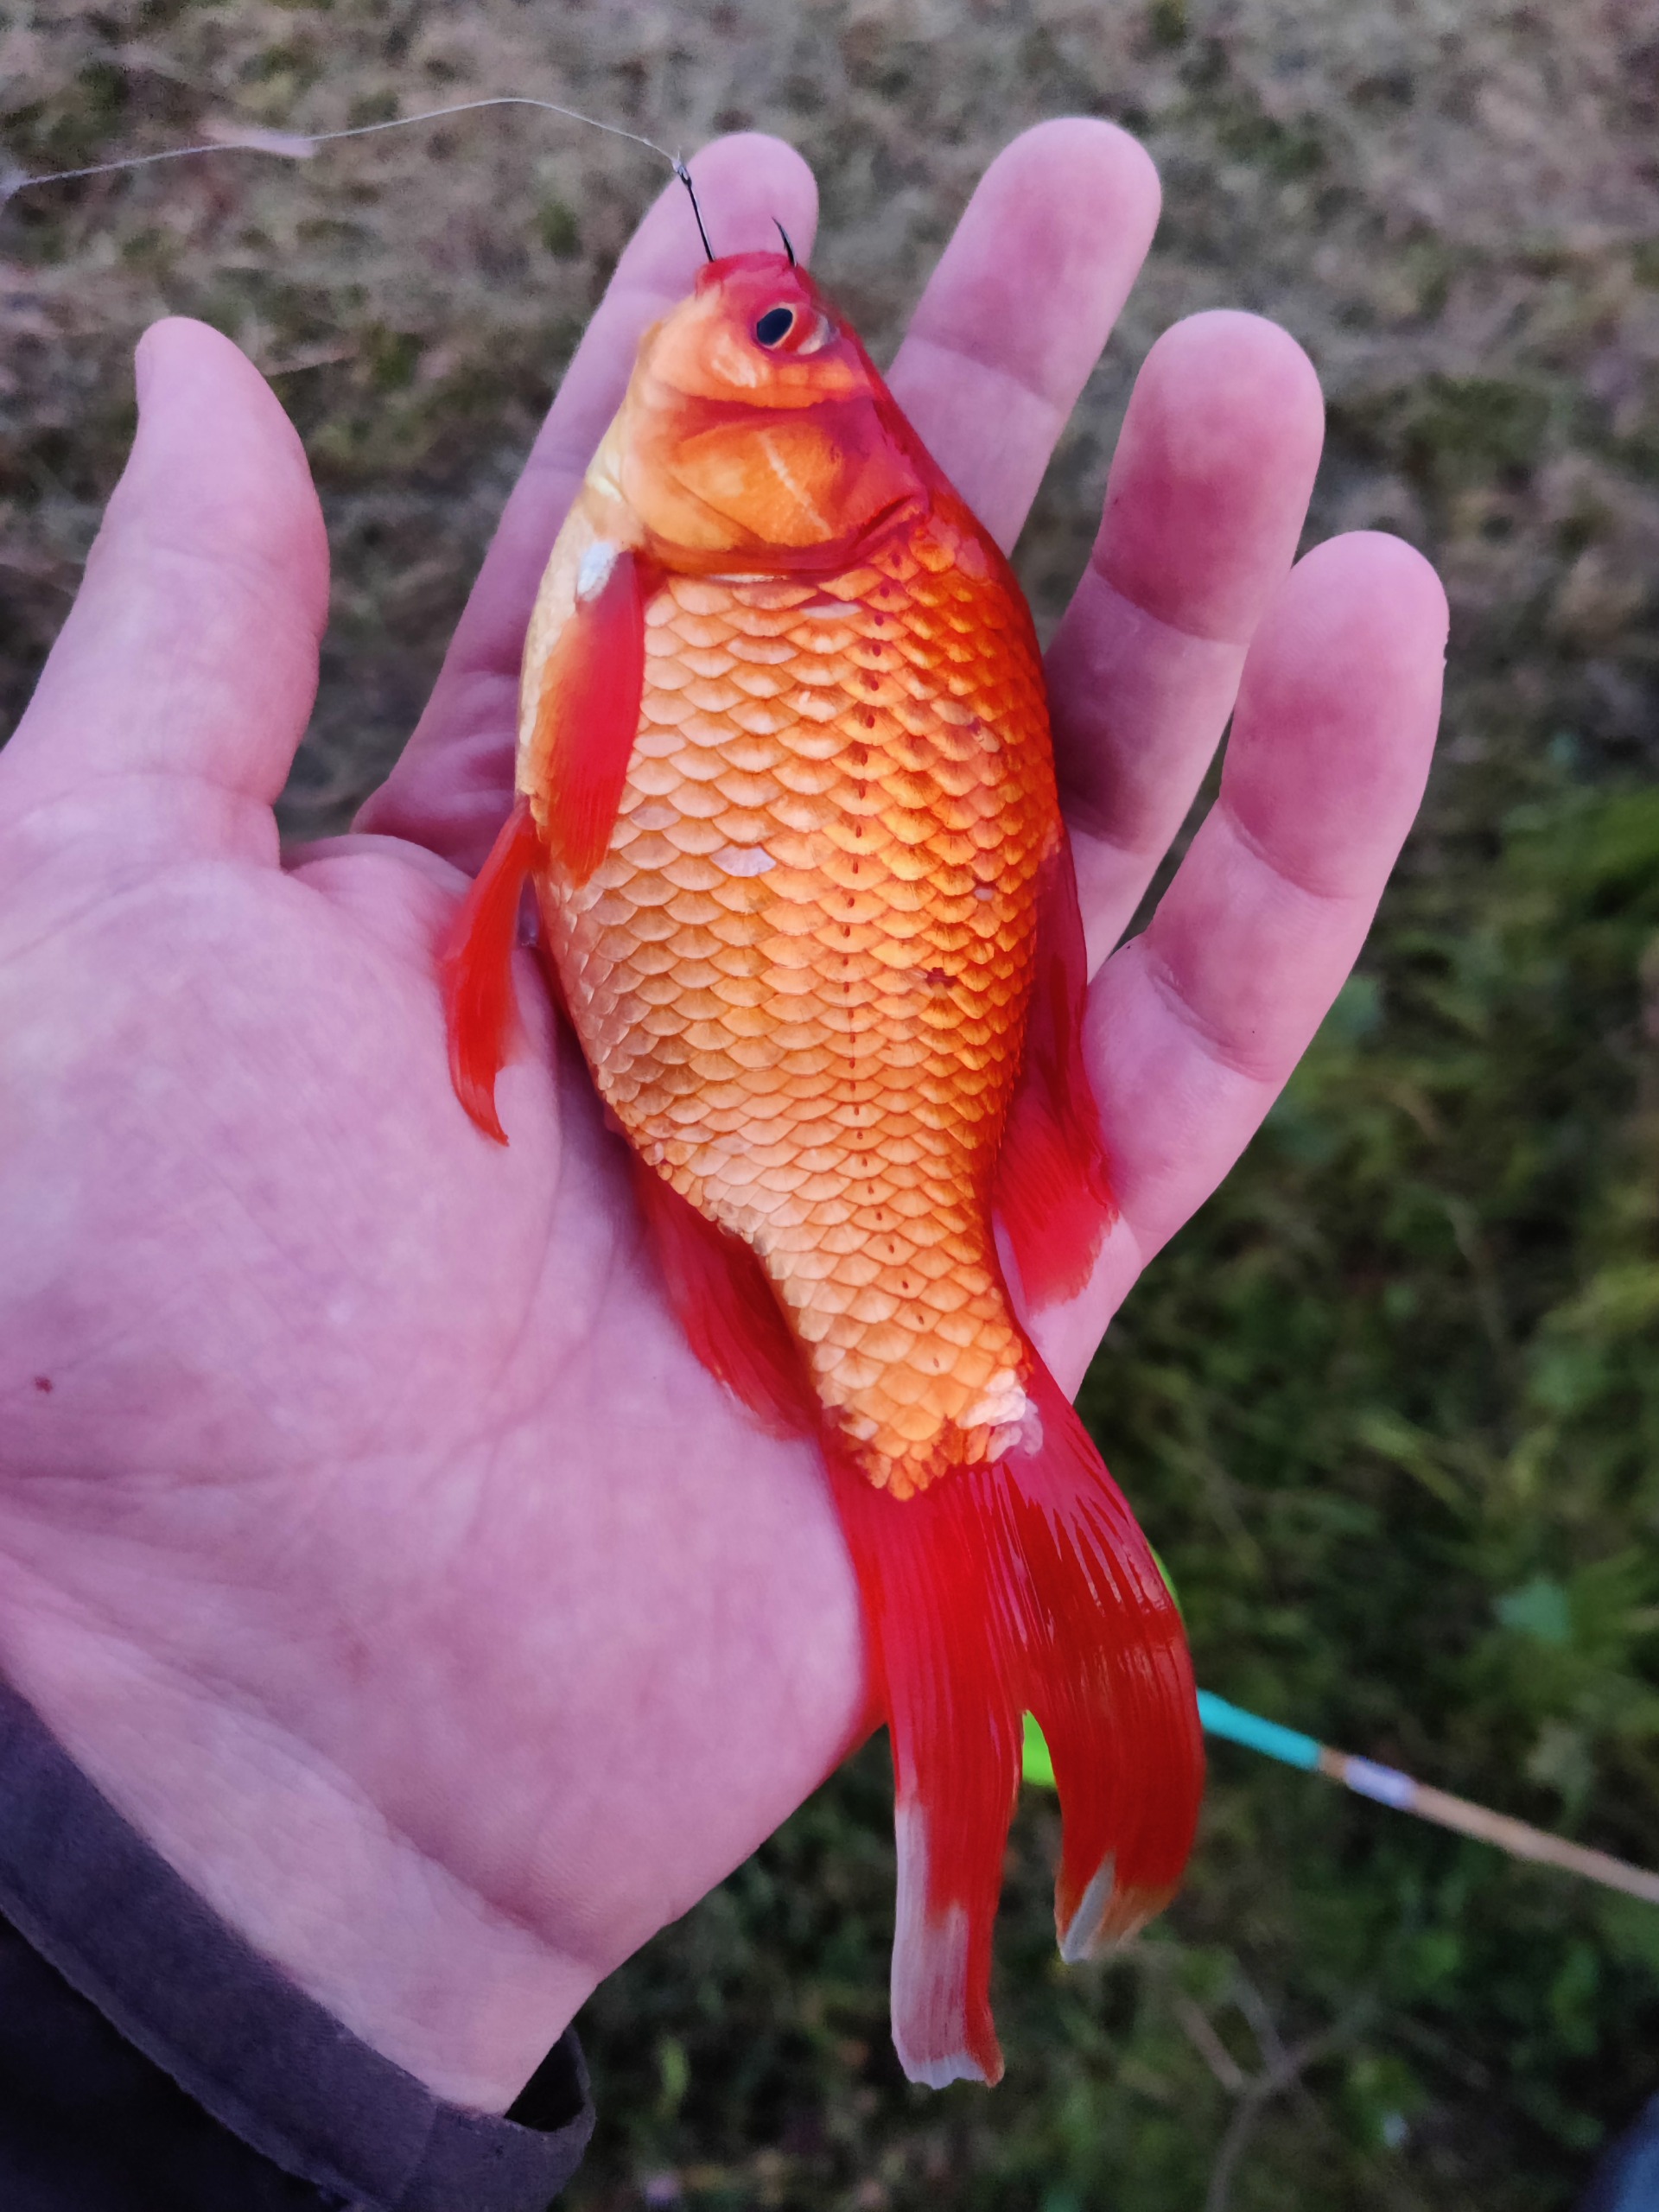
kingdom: Animalia
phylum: Chordata
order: Cypriniformes
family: Cyprinidae
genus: Carassius
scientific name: Carassius auratus
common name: Sølvkarusse
